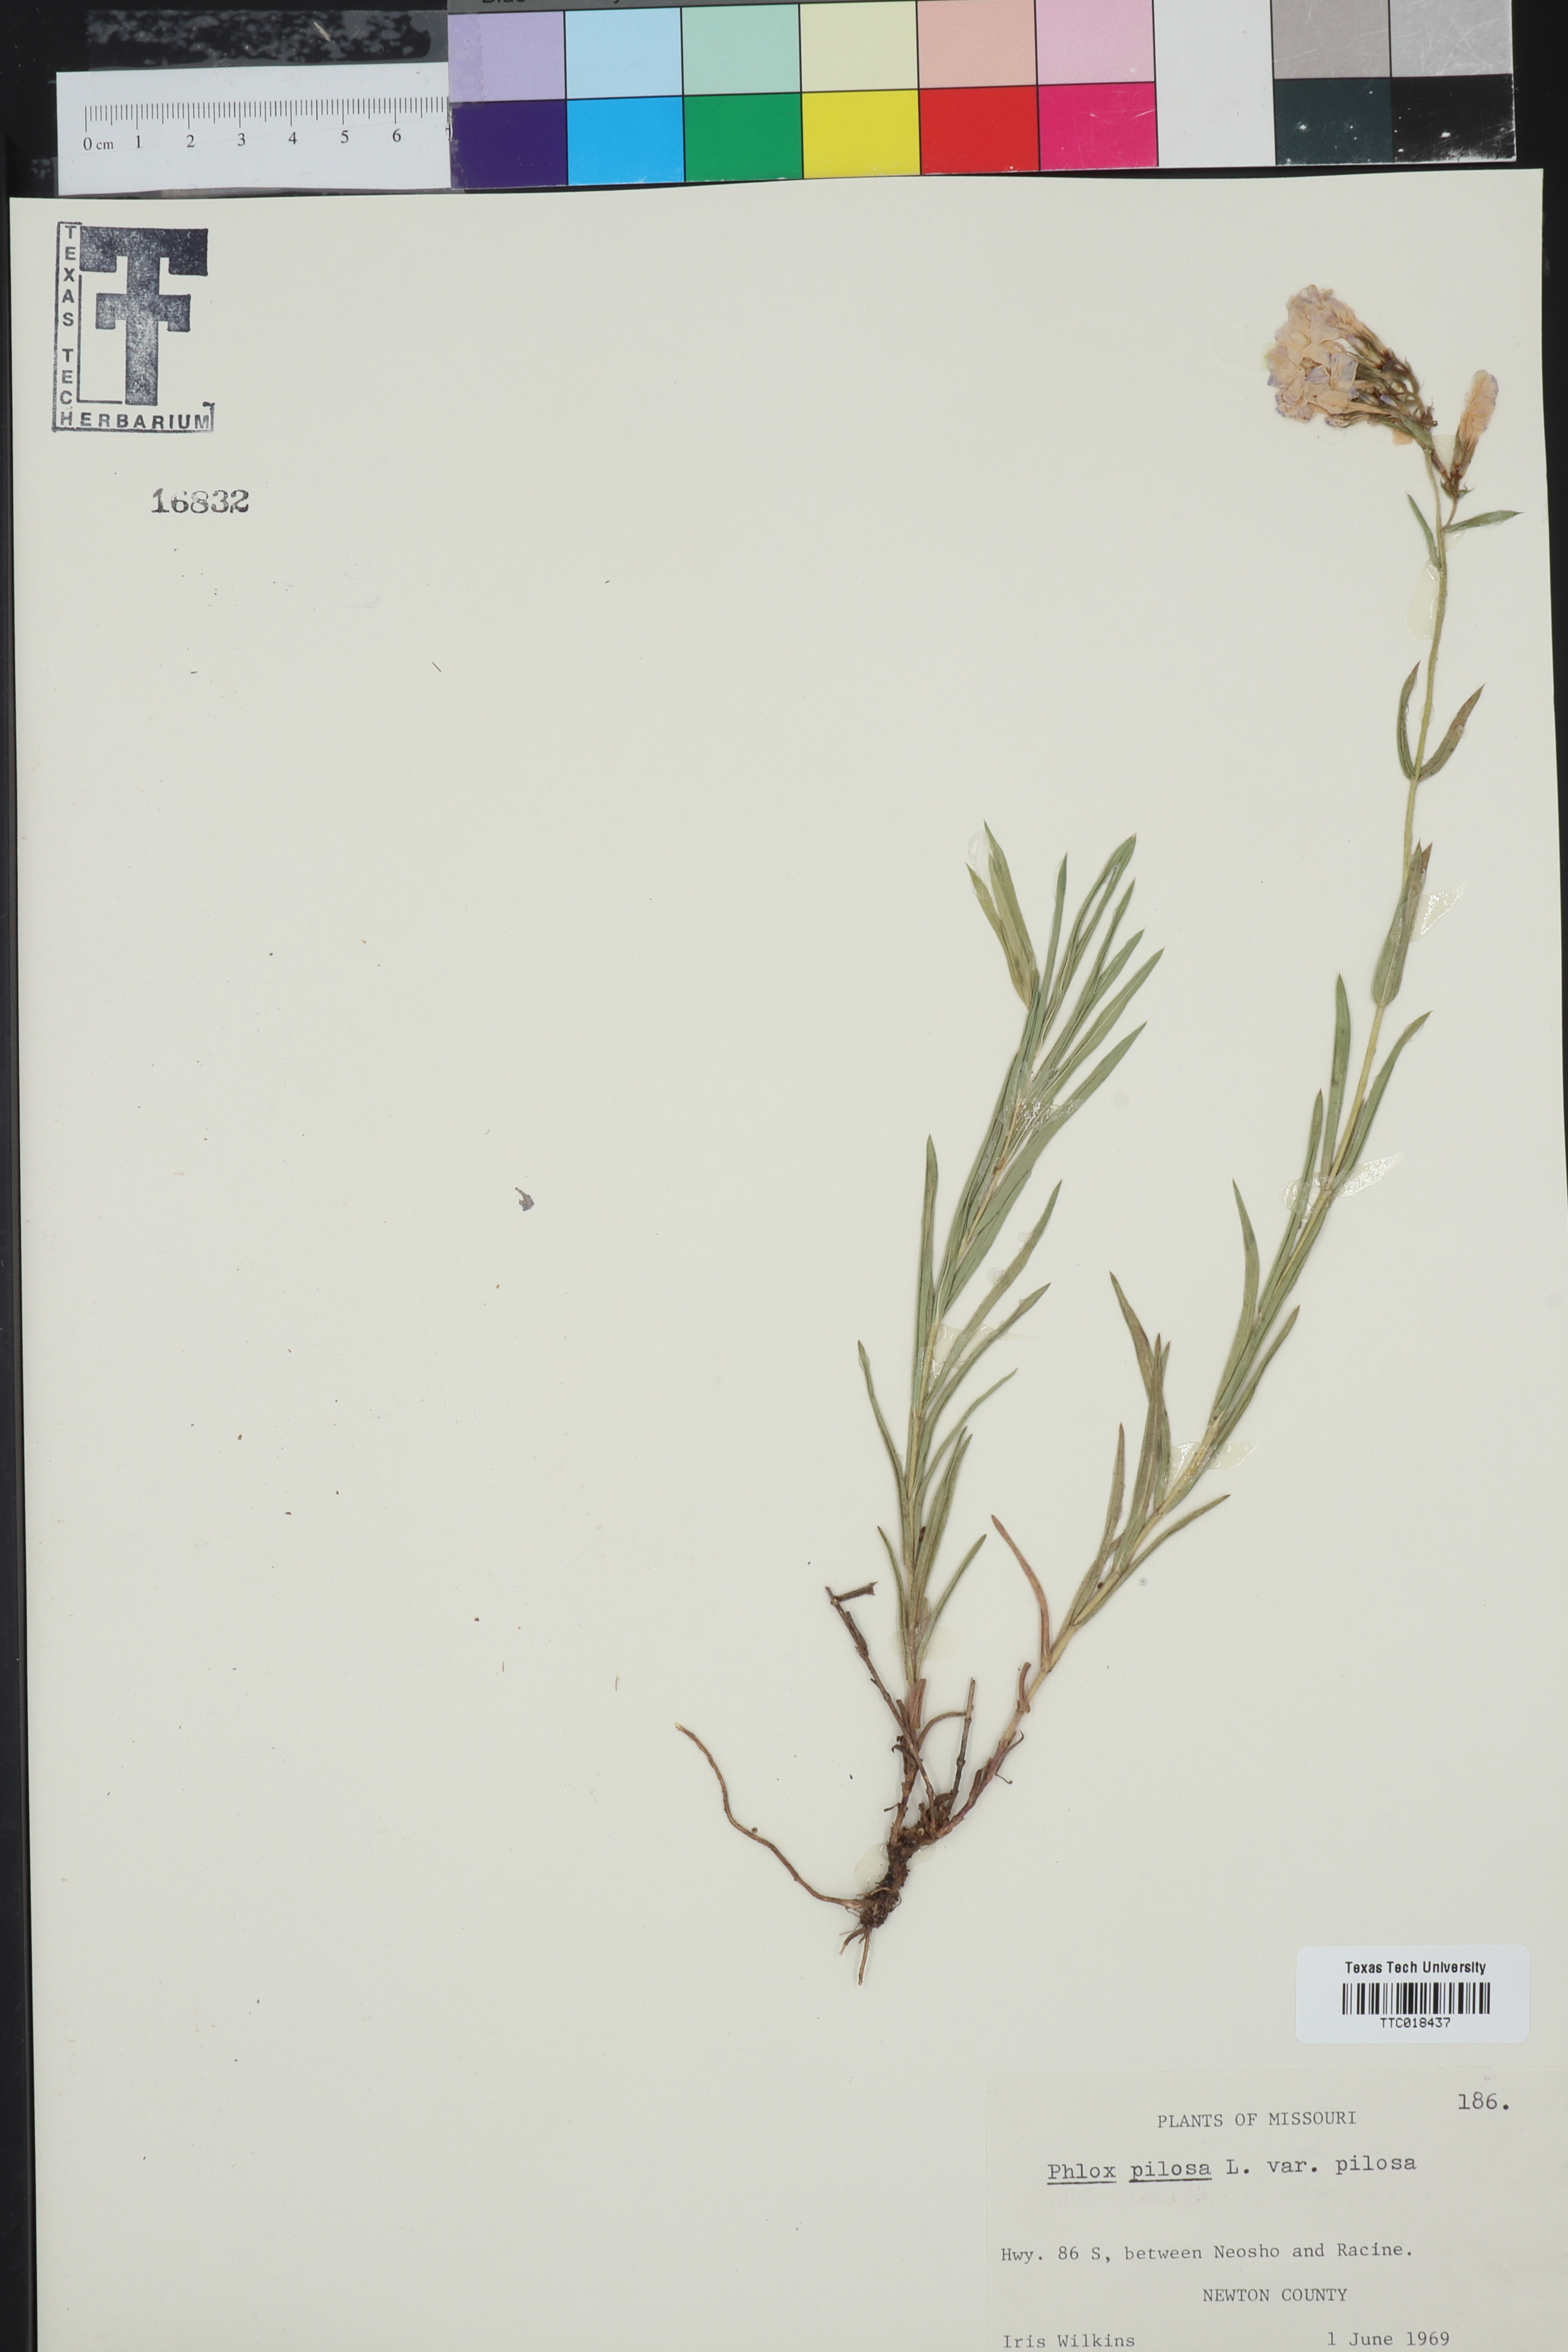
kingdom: Plantae
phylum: Tracheophyta
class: Magnoliopsida
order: Ericales
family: Polemoniaceae
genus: Phlox
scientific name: Phlox pilosa
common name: Prairie phlox
